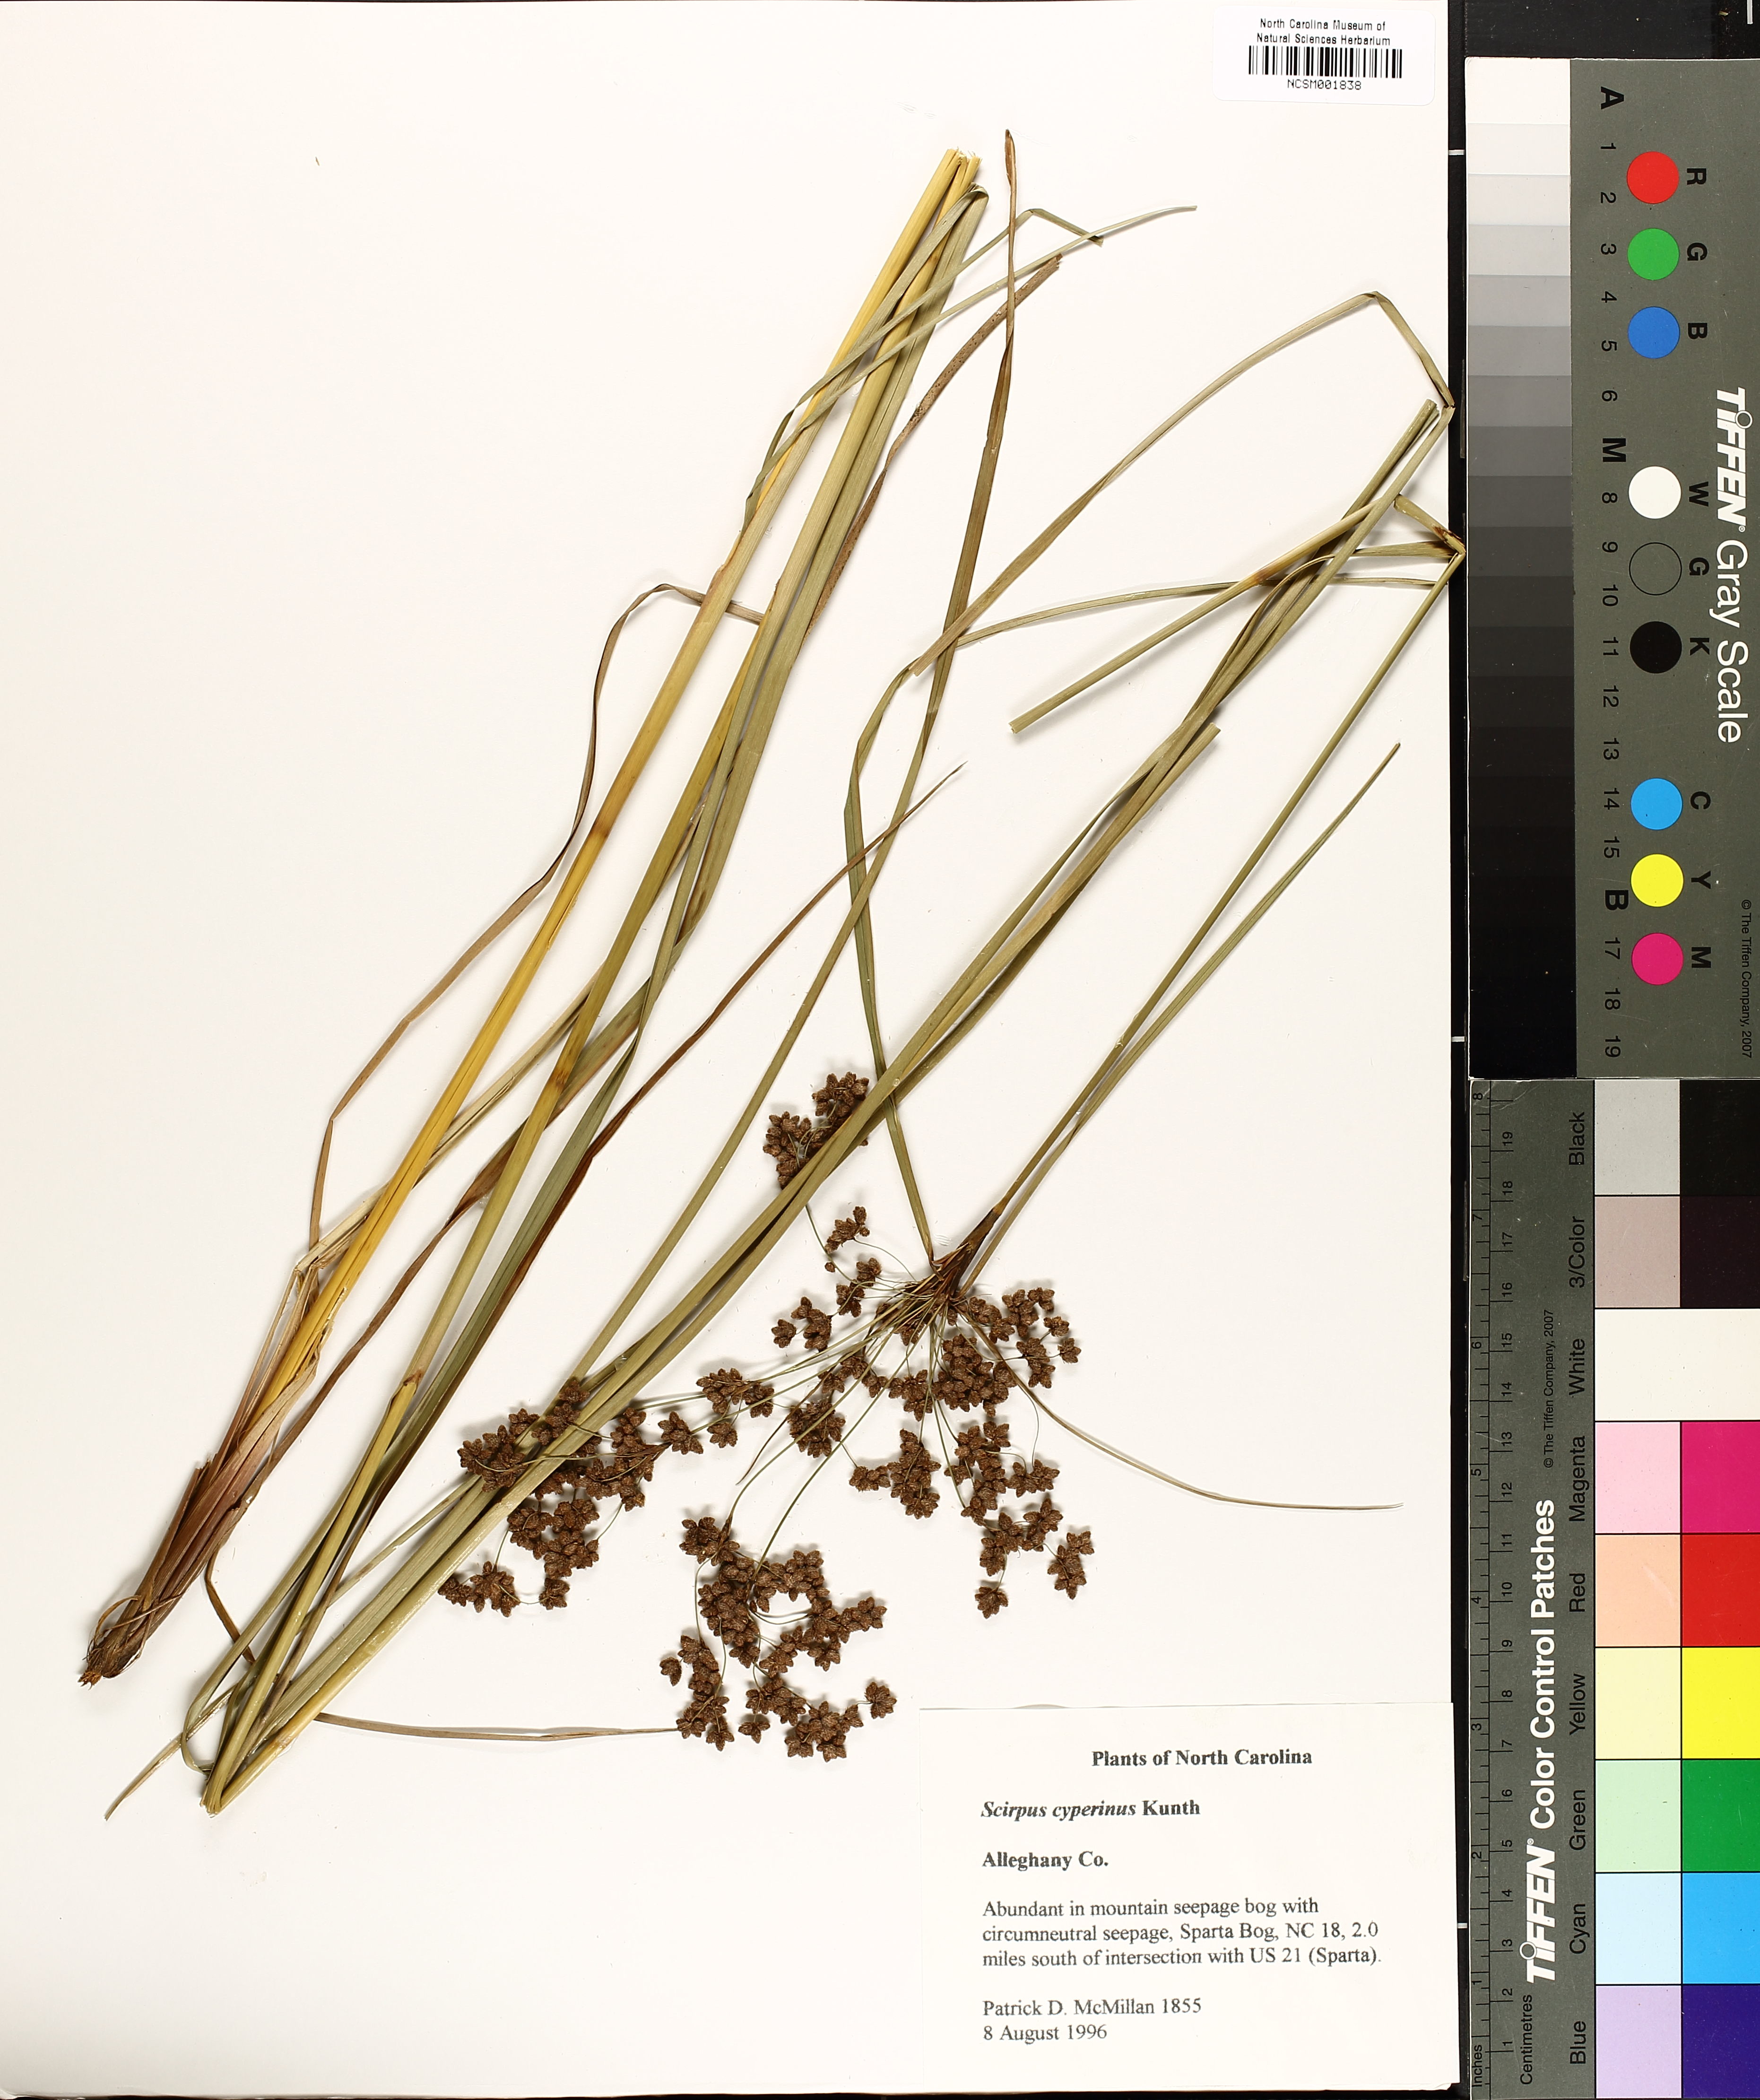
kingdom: Plantae
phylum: Tracheophyta
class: Liliopsida
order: Poales
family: Cyperaceae
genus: Scirpus
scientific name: Scirpus cyperinus
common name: Black-sheathed bulrush
